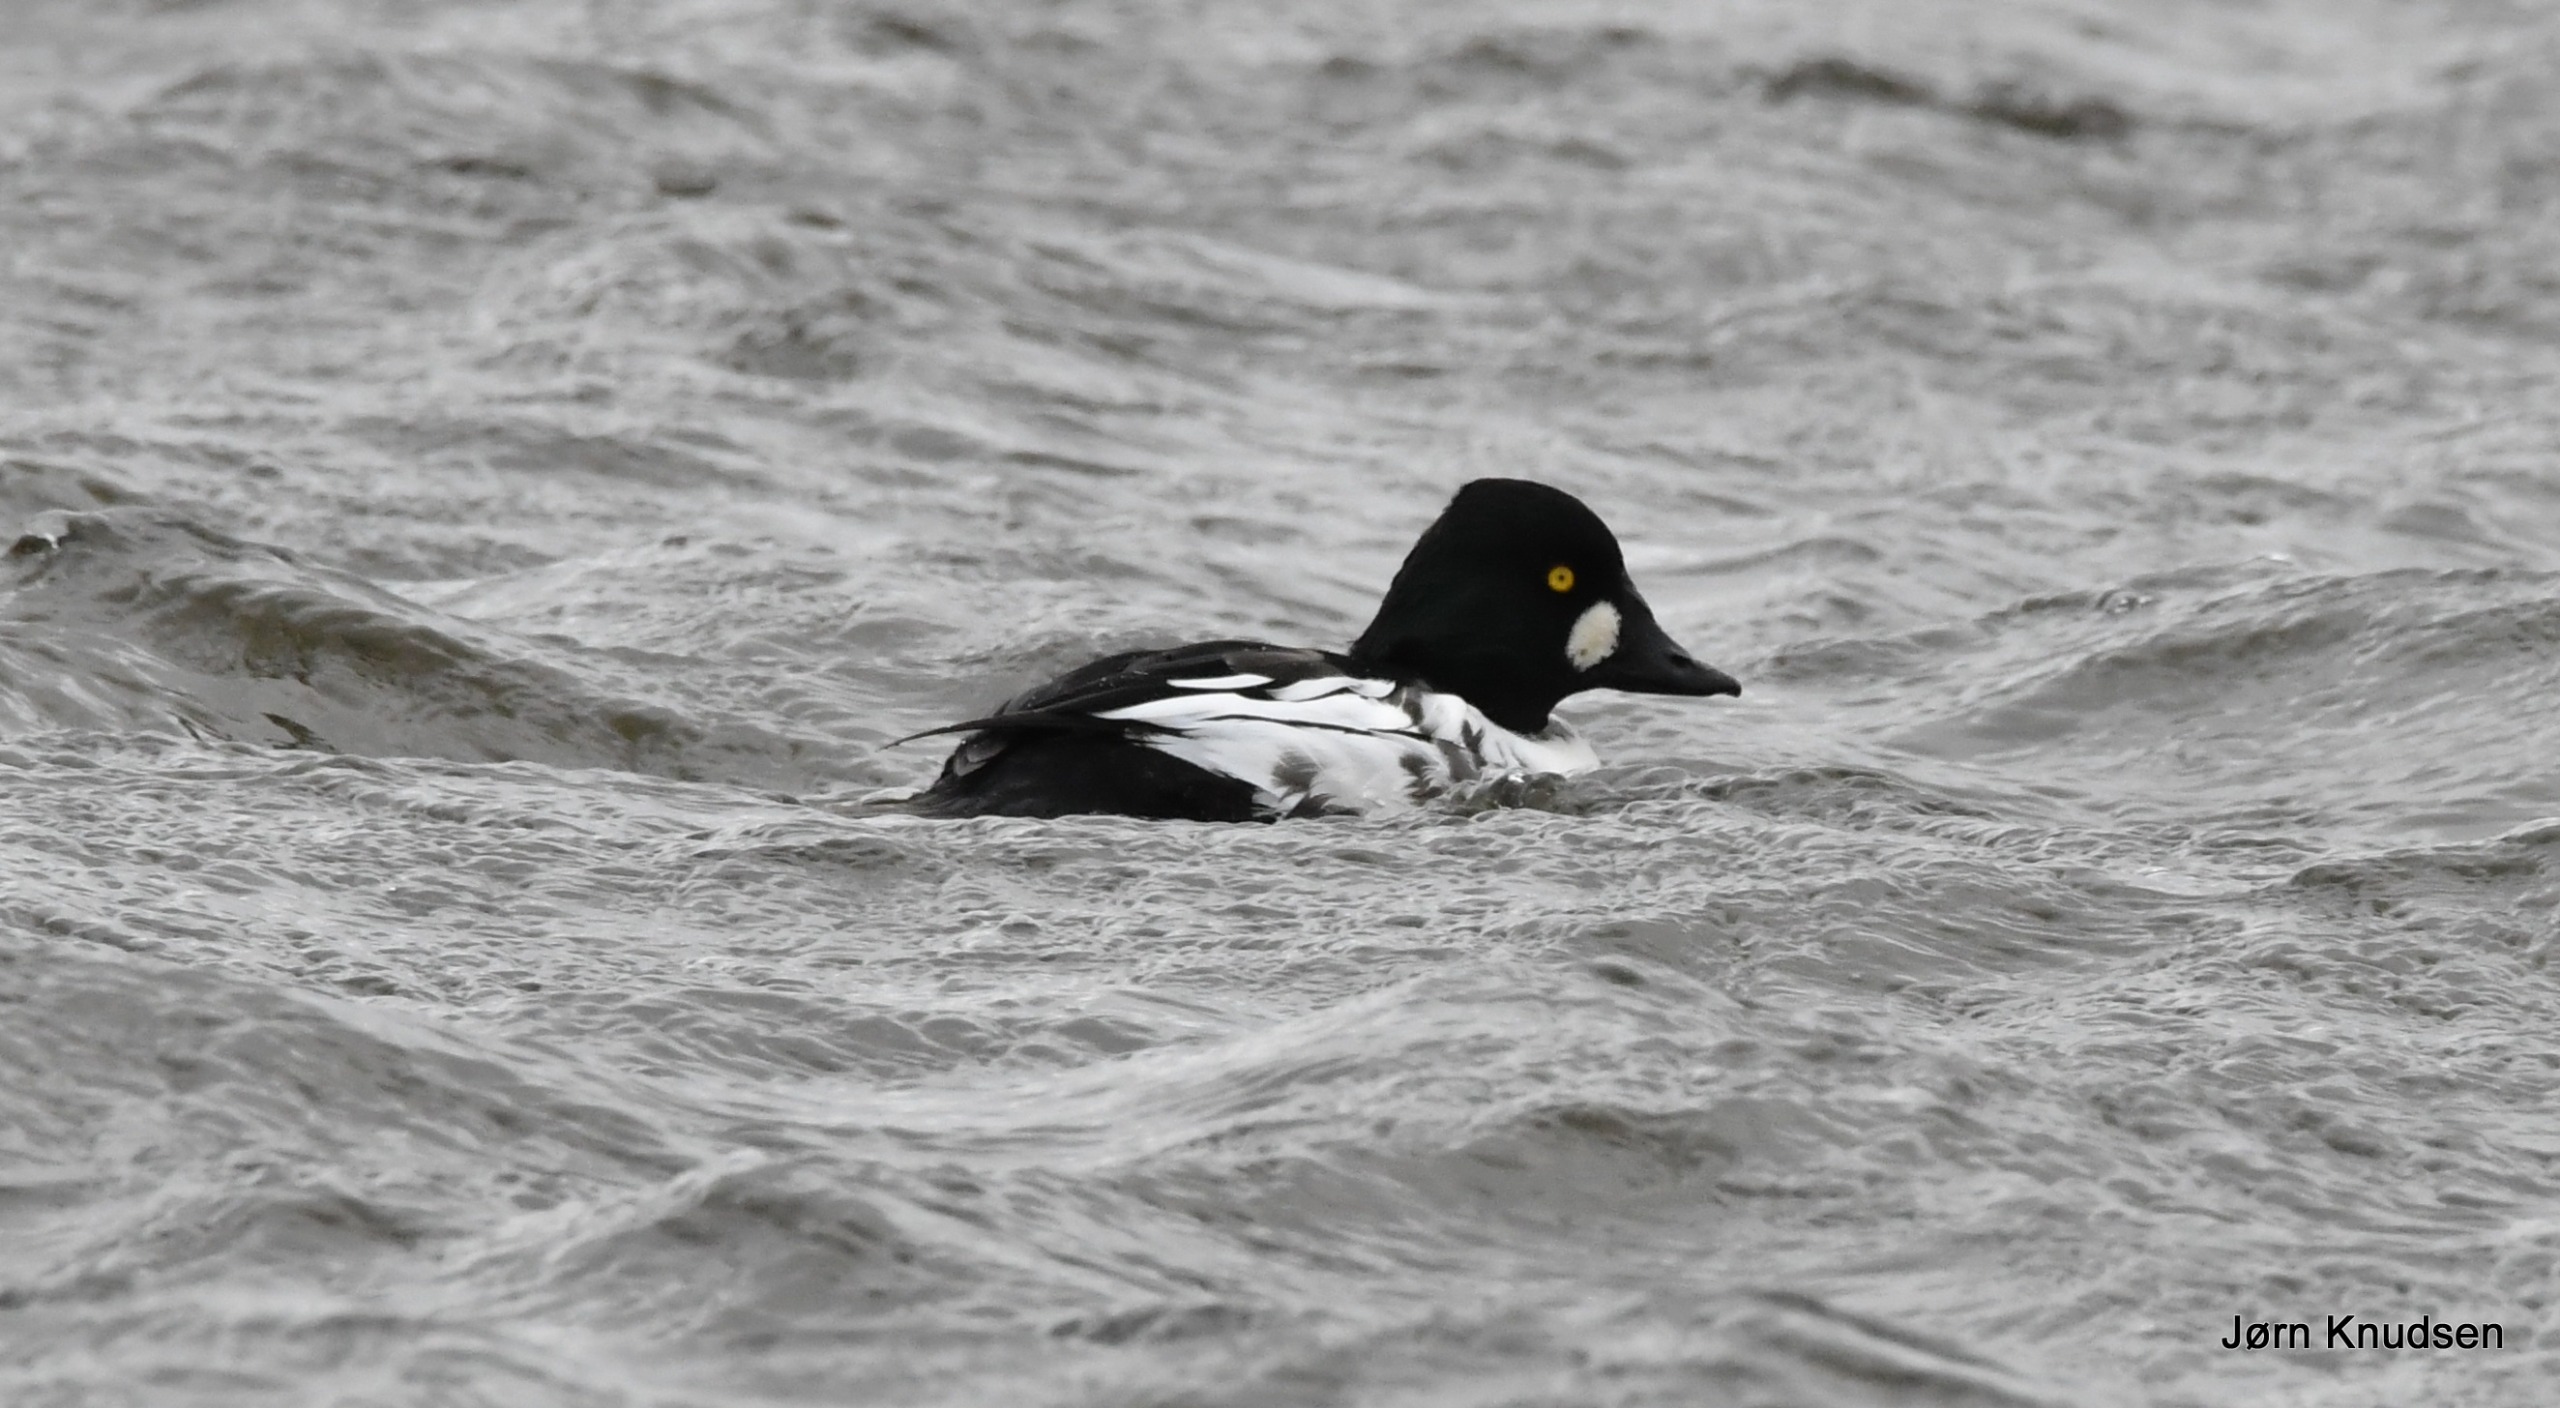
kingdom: Animalia
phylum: Chordata
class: Aves
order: Anseriformes
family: Anatidae
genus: Bucephala
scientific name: Bucephala clangula
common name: Hvinand
